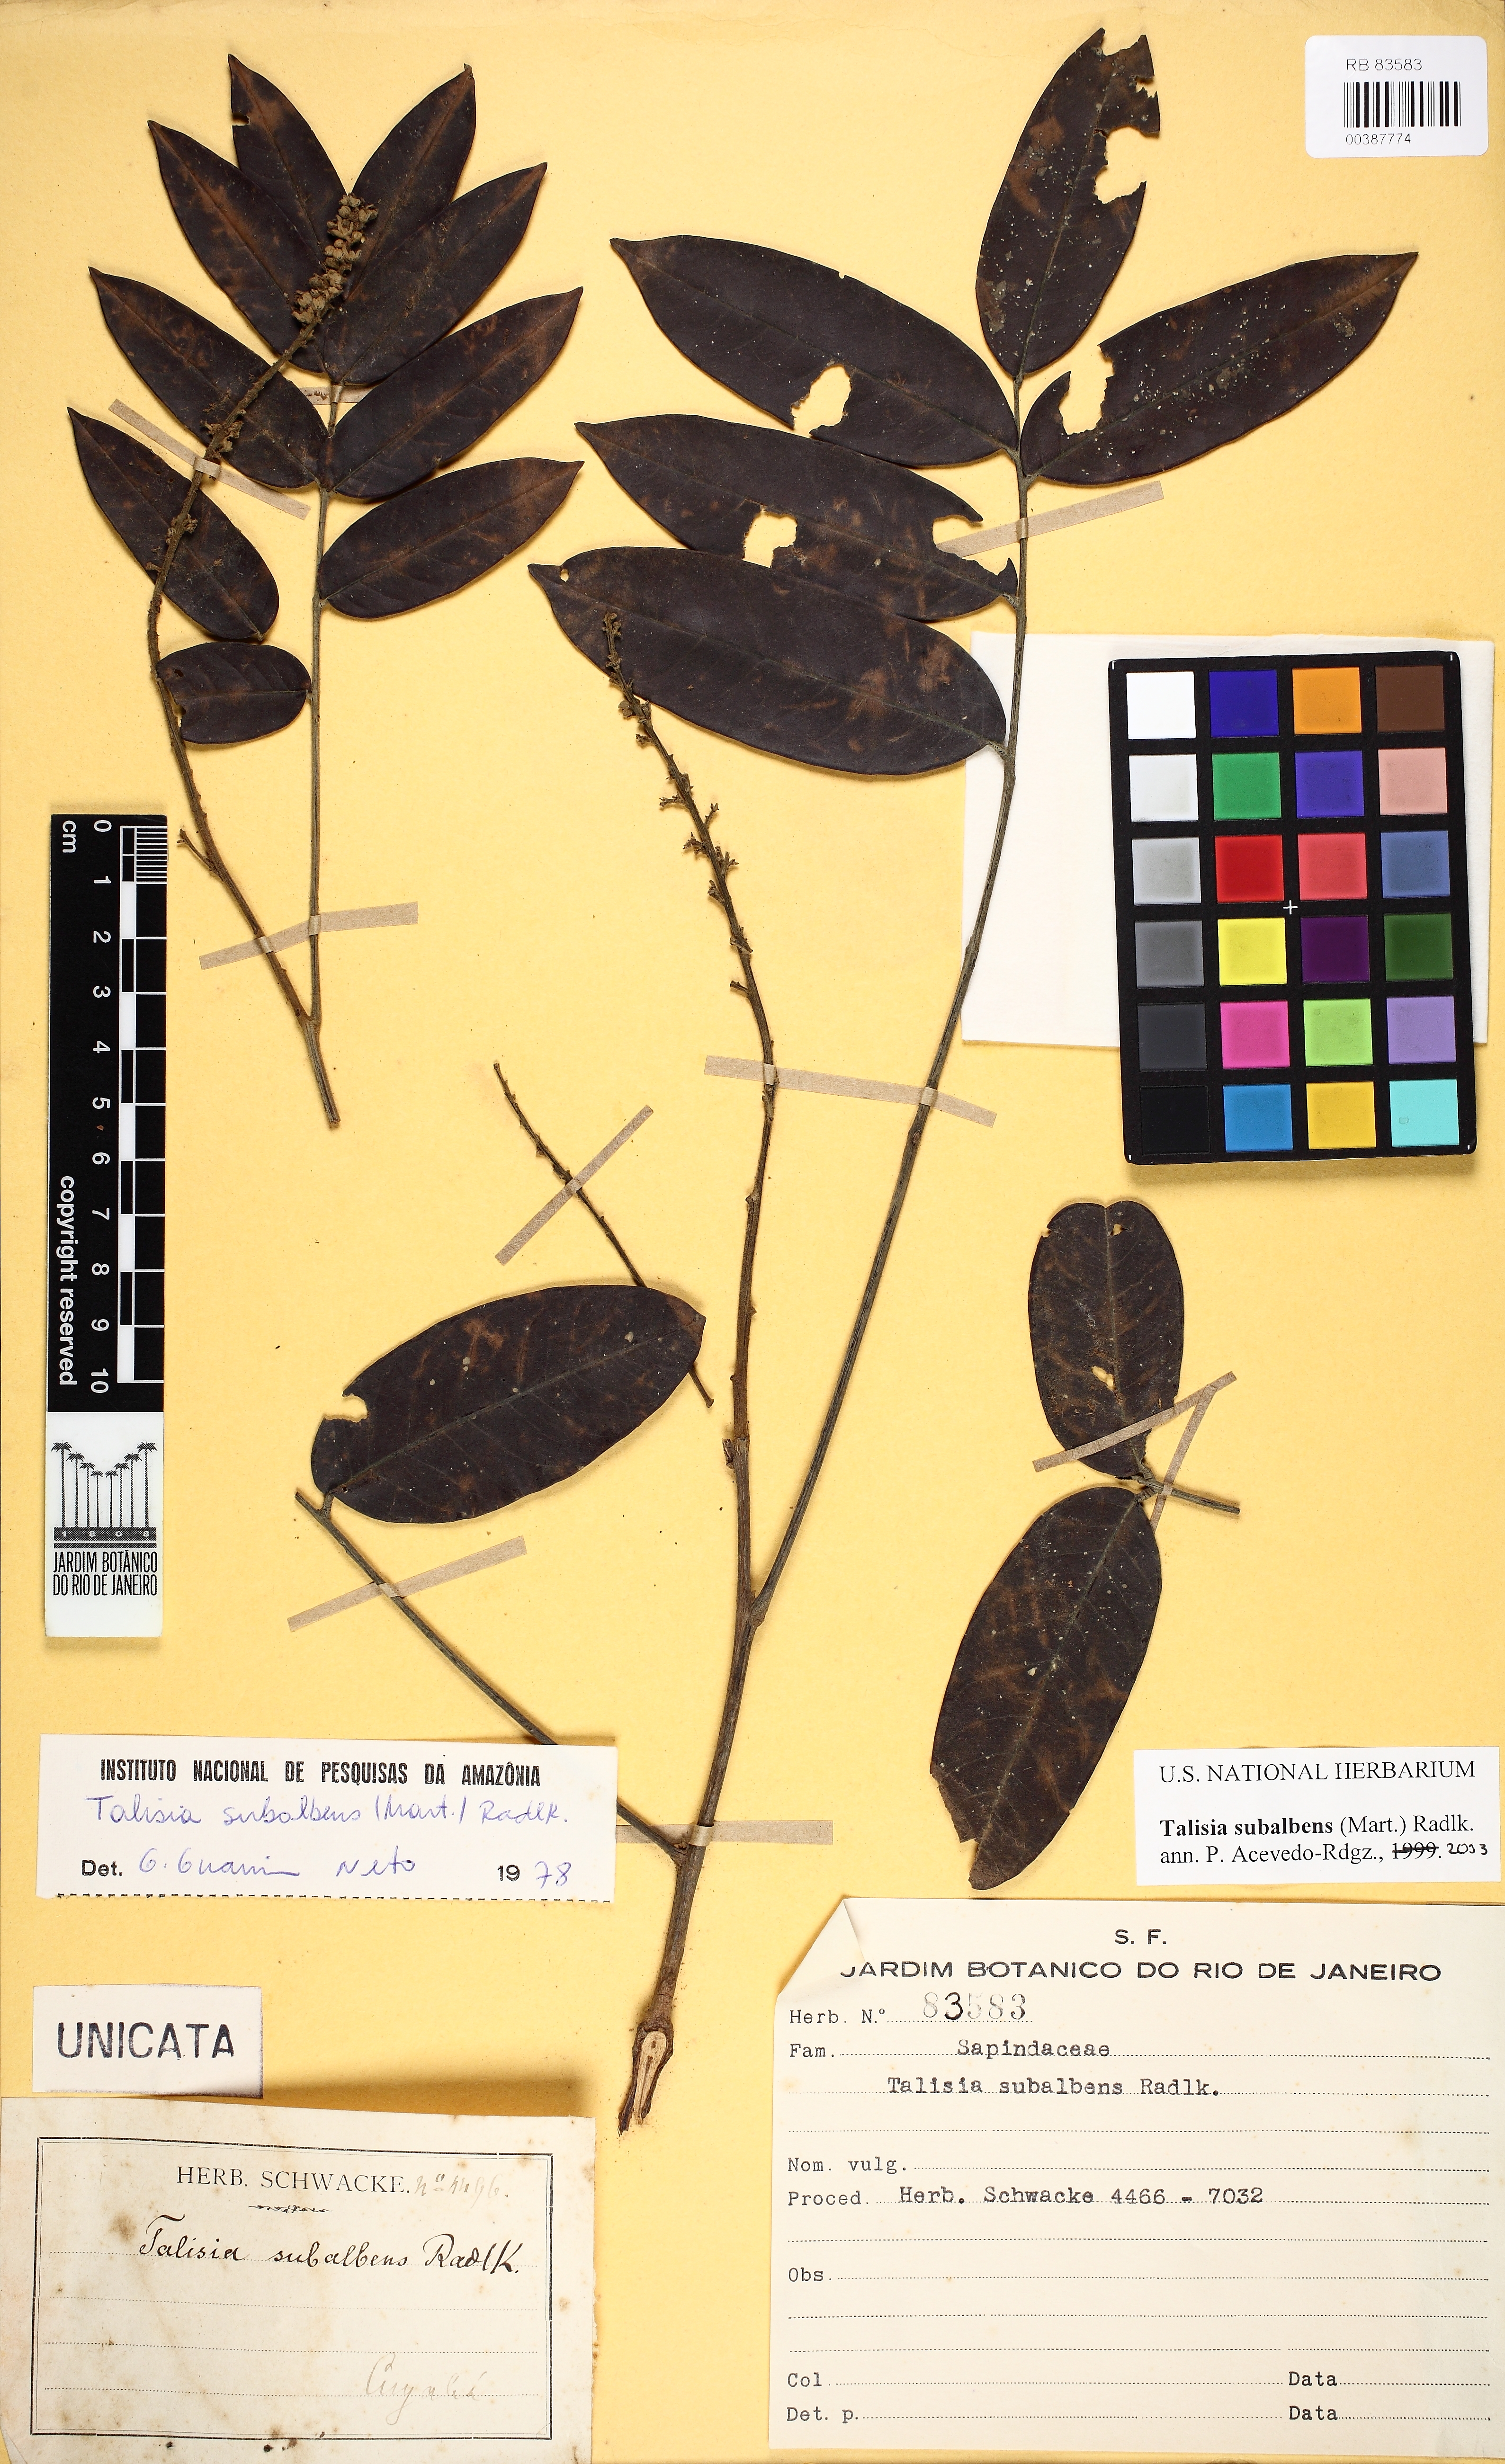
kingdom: Plantae
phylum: Tracheophyta
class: Magnoliopsida
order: Sapindales
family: Sapindaceae
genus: Talisia
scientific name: Talisia subalbens
